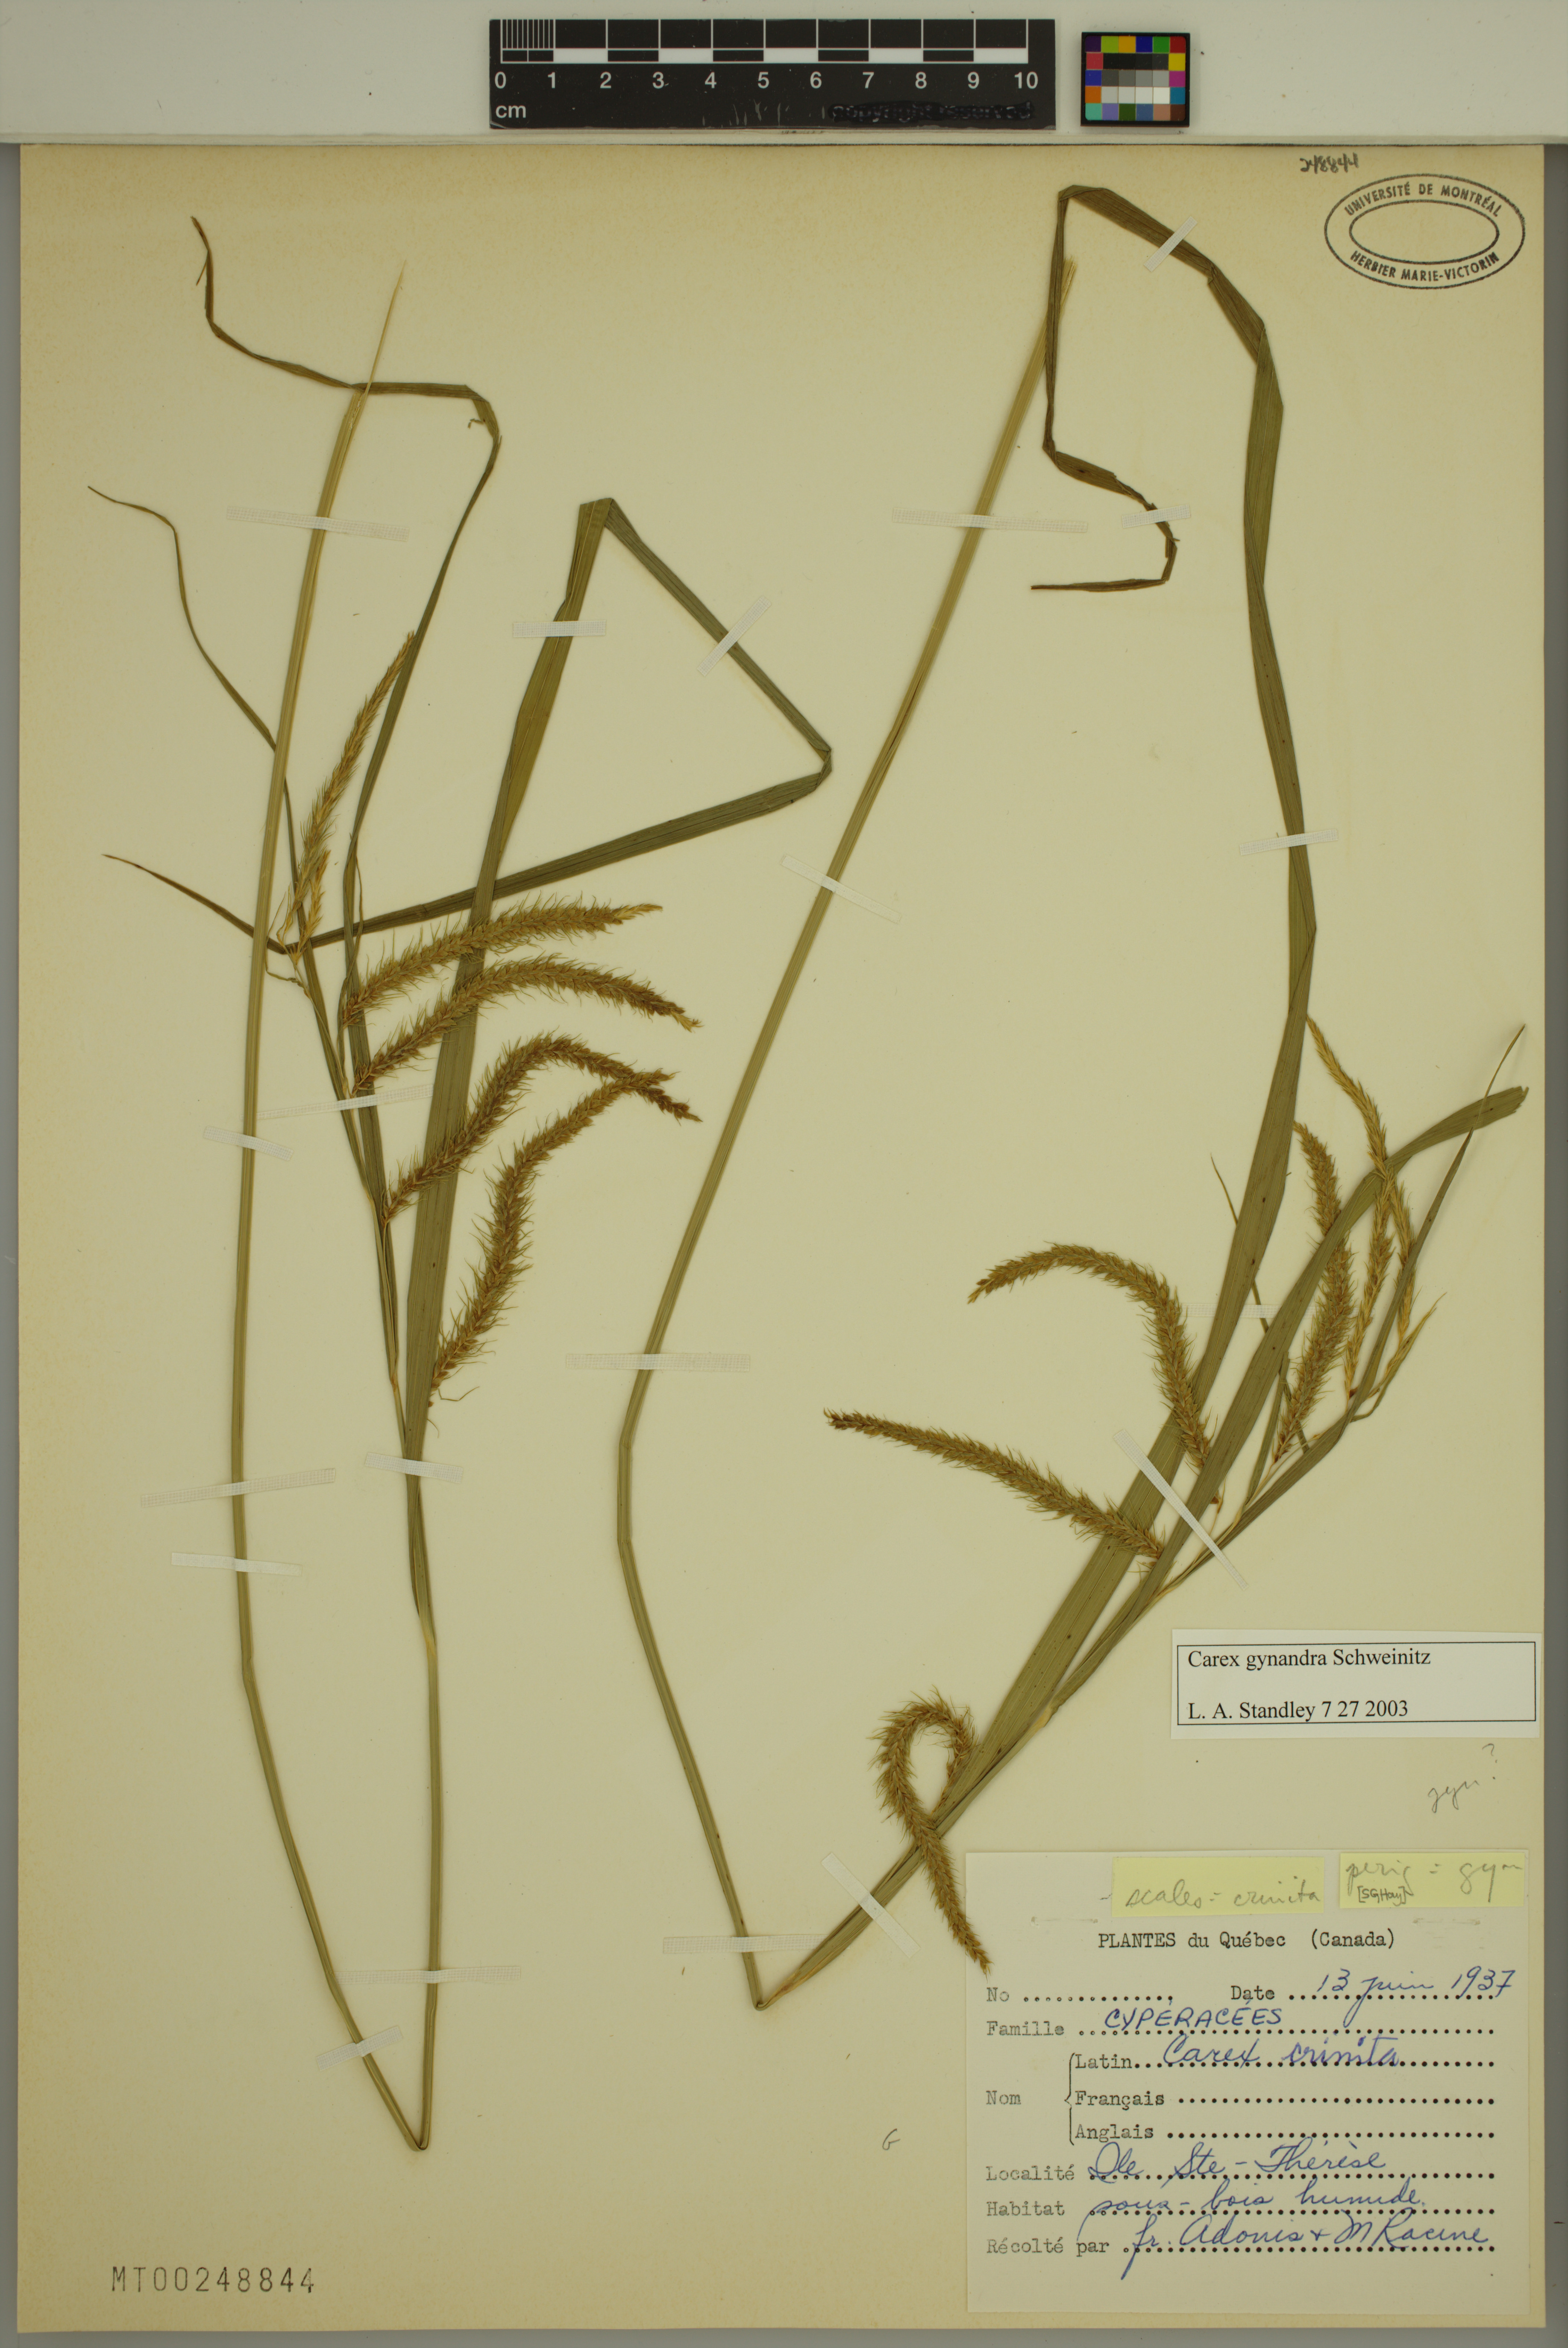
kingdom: Plantae
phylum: Tracheophyta
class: Liliopsida
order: Poales
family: Cyperaceae
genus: Carex
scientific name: Carex gynandra
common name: Nodding sedge
